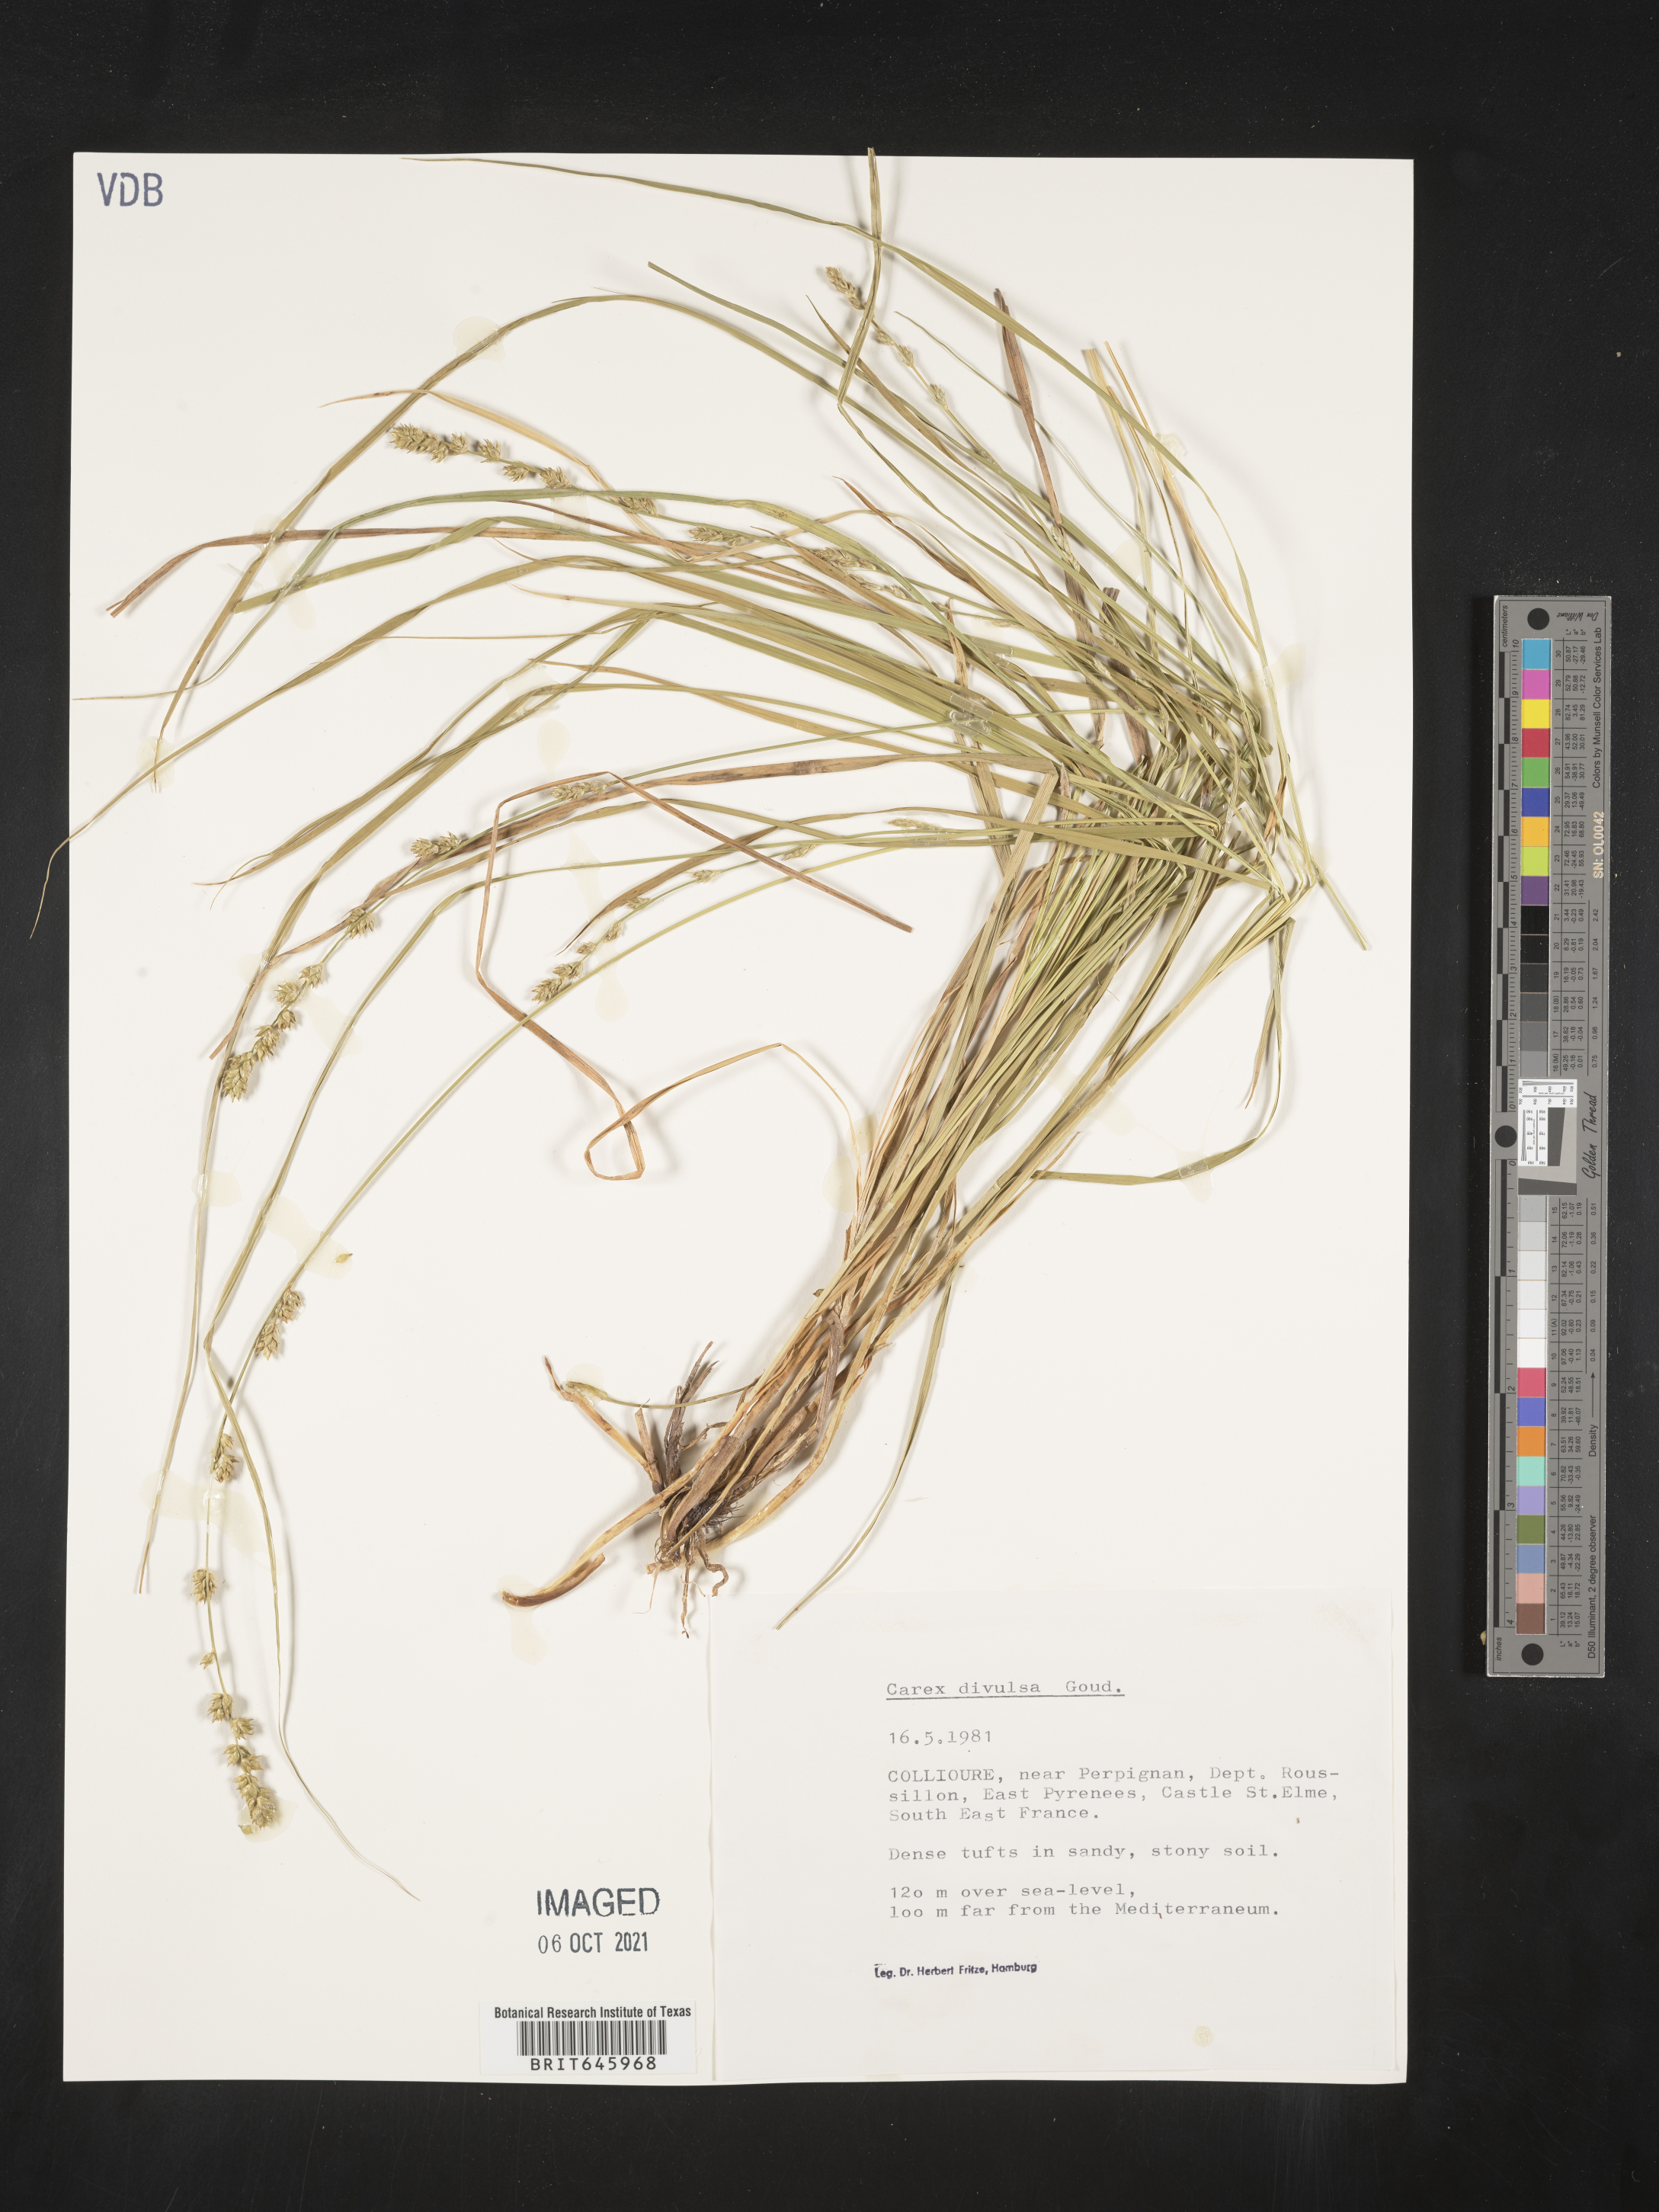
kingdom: Plantae
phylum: Tracheophyta
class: Liliopsida
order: Poales
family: Cyperaceae
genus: Carex
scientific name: Carex divulsa
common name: Grassland sedge
